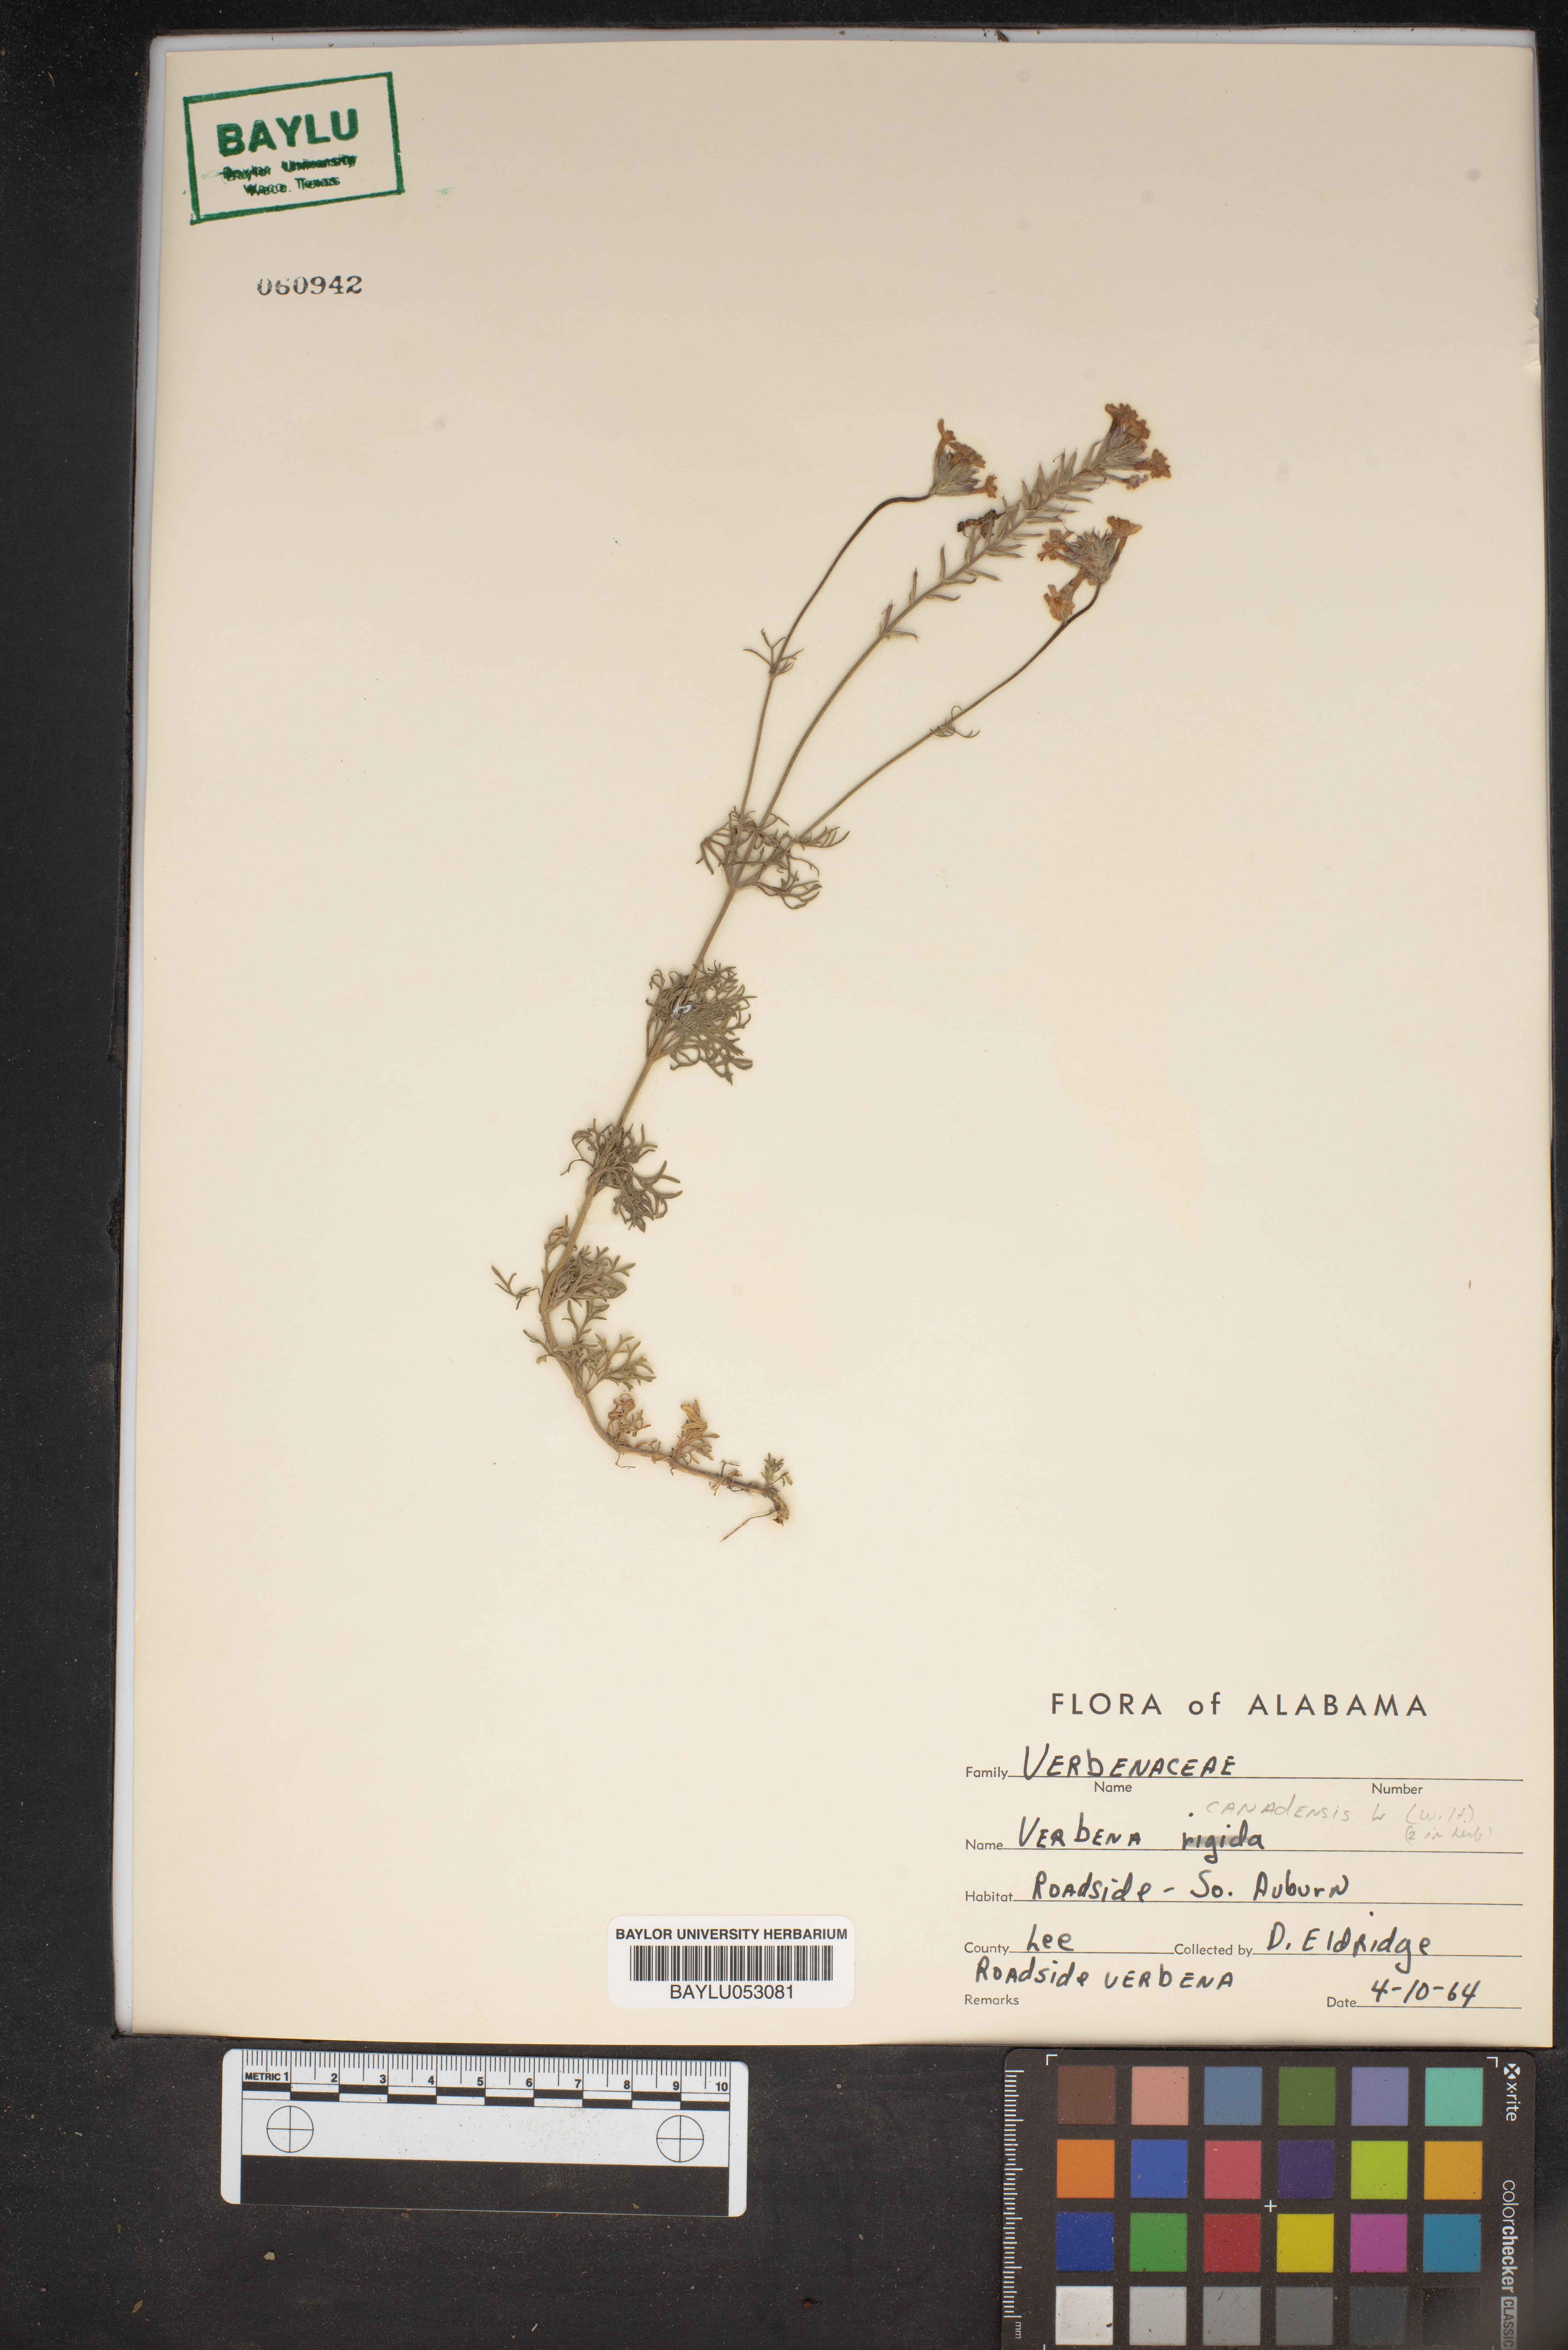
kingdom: Plantae
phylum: Tracheophyta
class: Magnoliopsida
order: Lamiales
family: Verbenaceae
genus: Verbena
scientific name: Verbena canadensis
